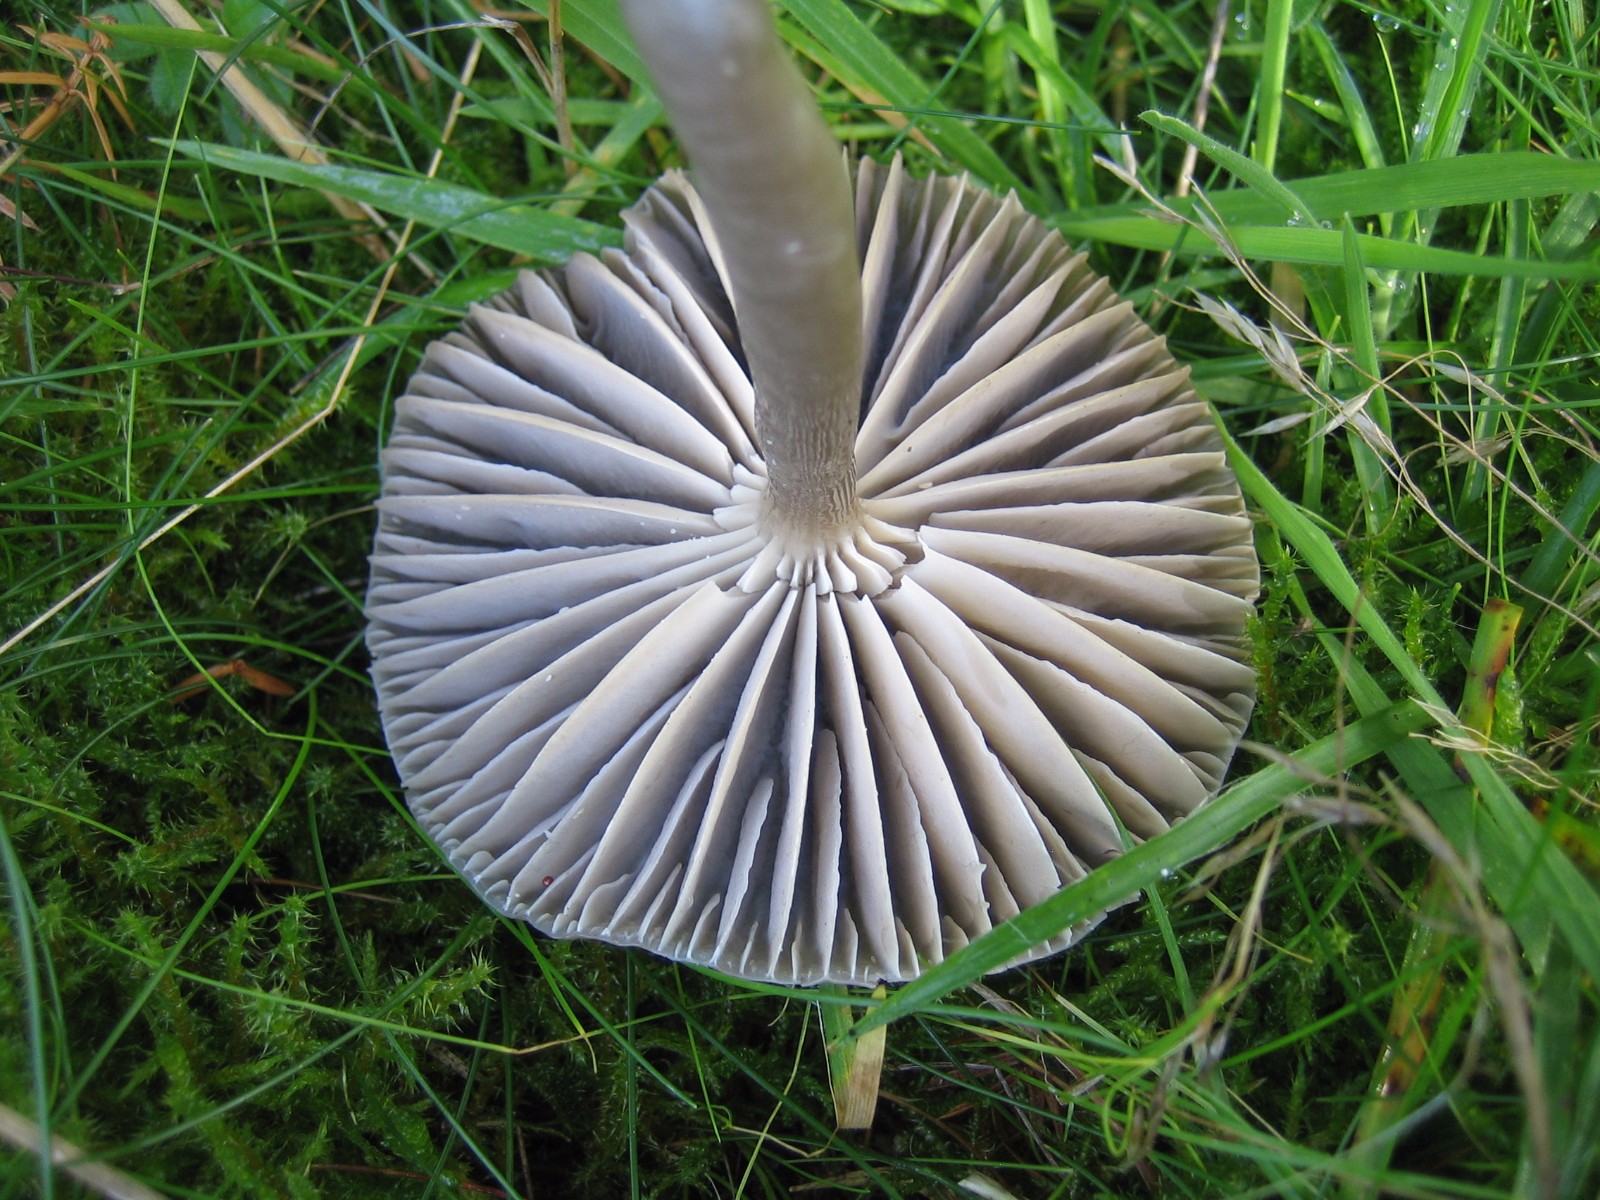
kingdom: Fungi
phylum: Basidiomycota
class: Agaricomycetes
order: Agaricales
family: Hygrophoraceae
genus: Gliophorus
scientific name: Gliophorus irrigatus
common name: slimet vokshat
